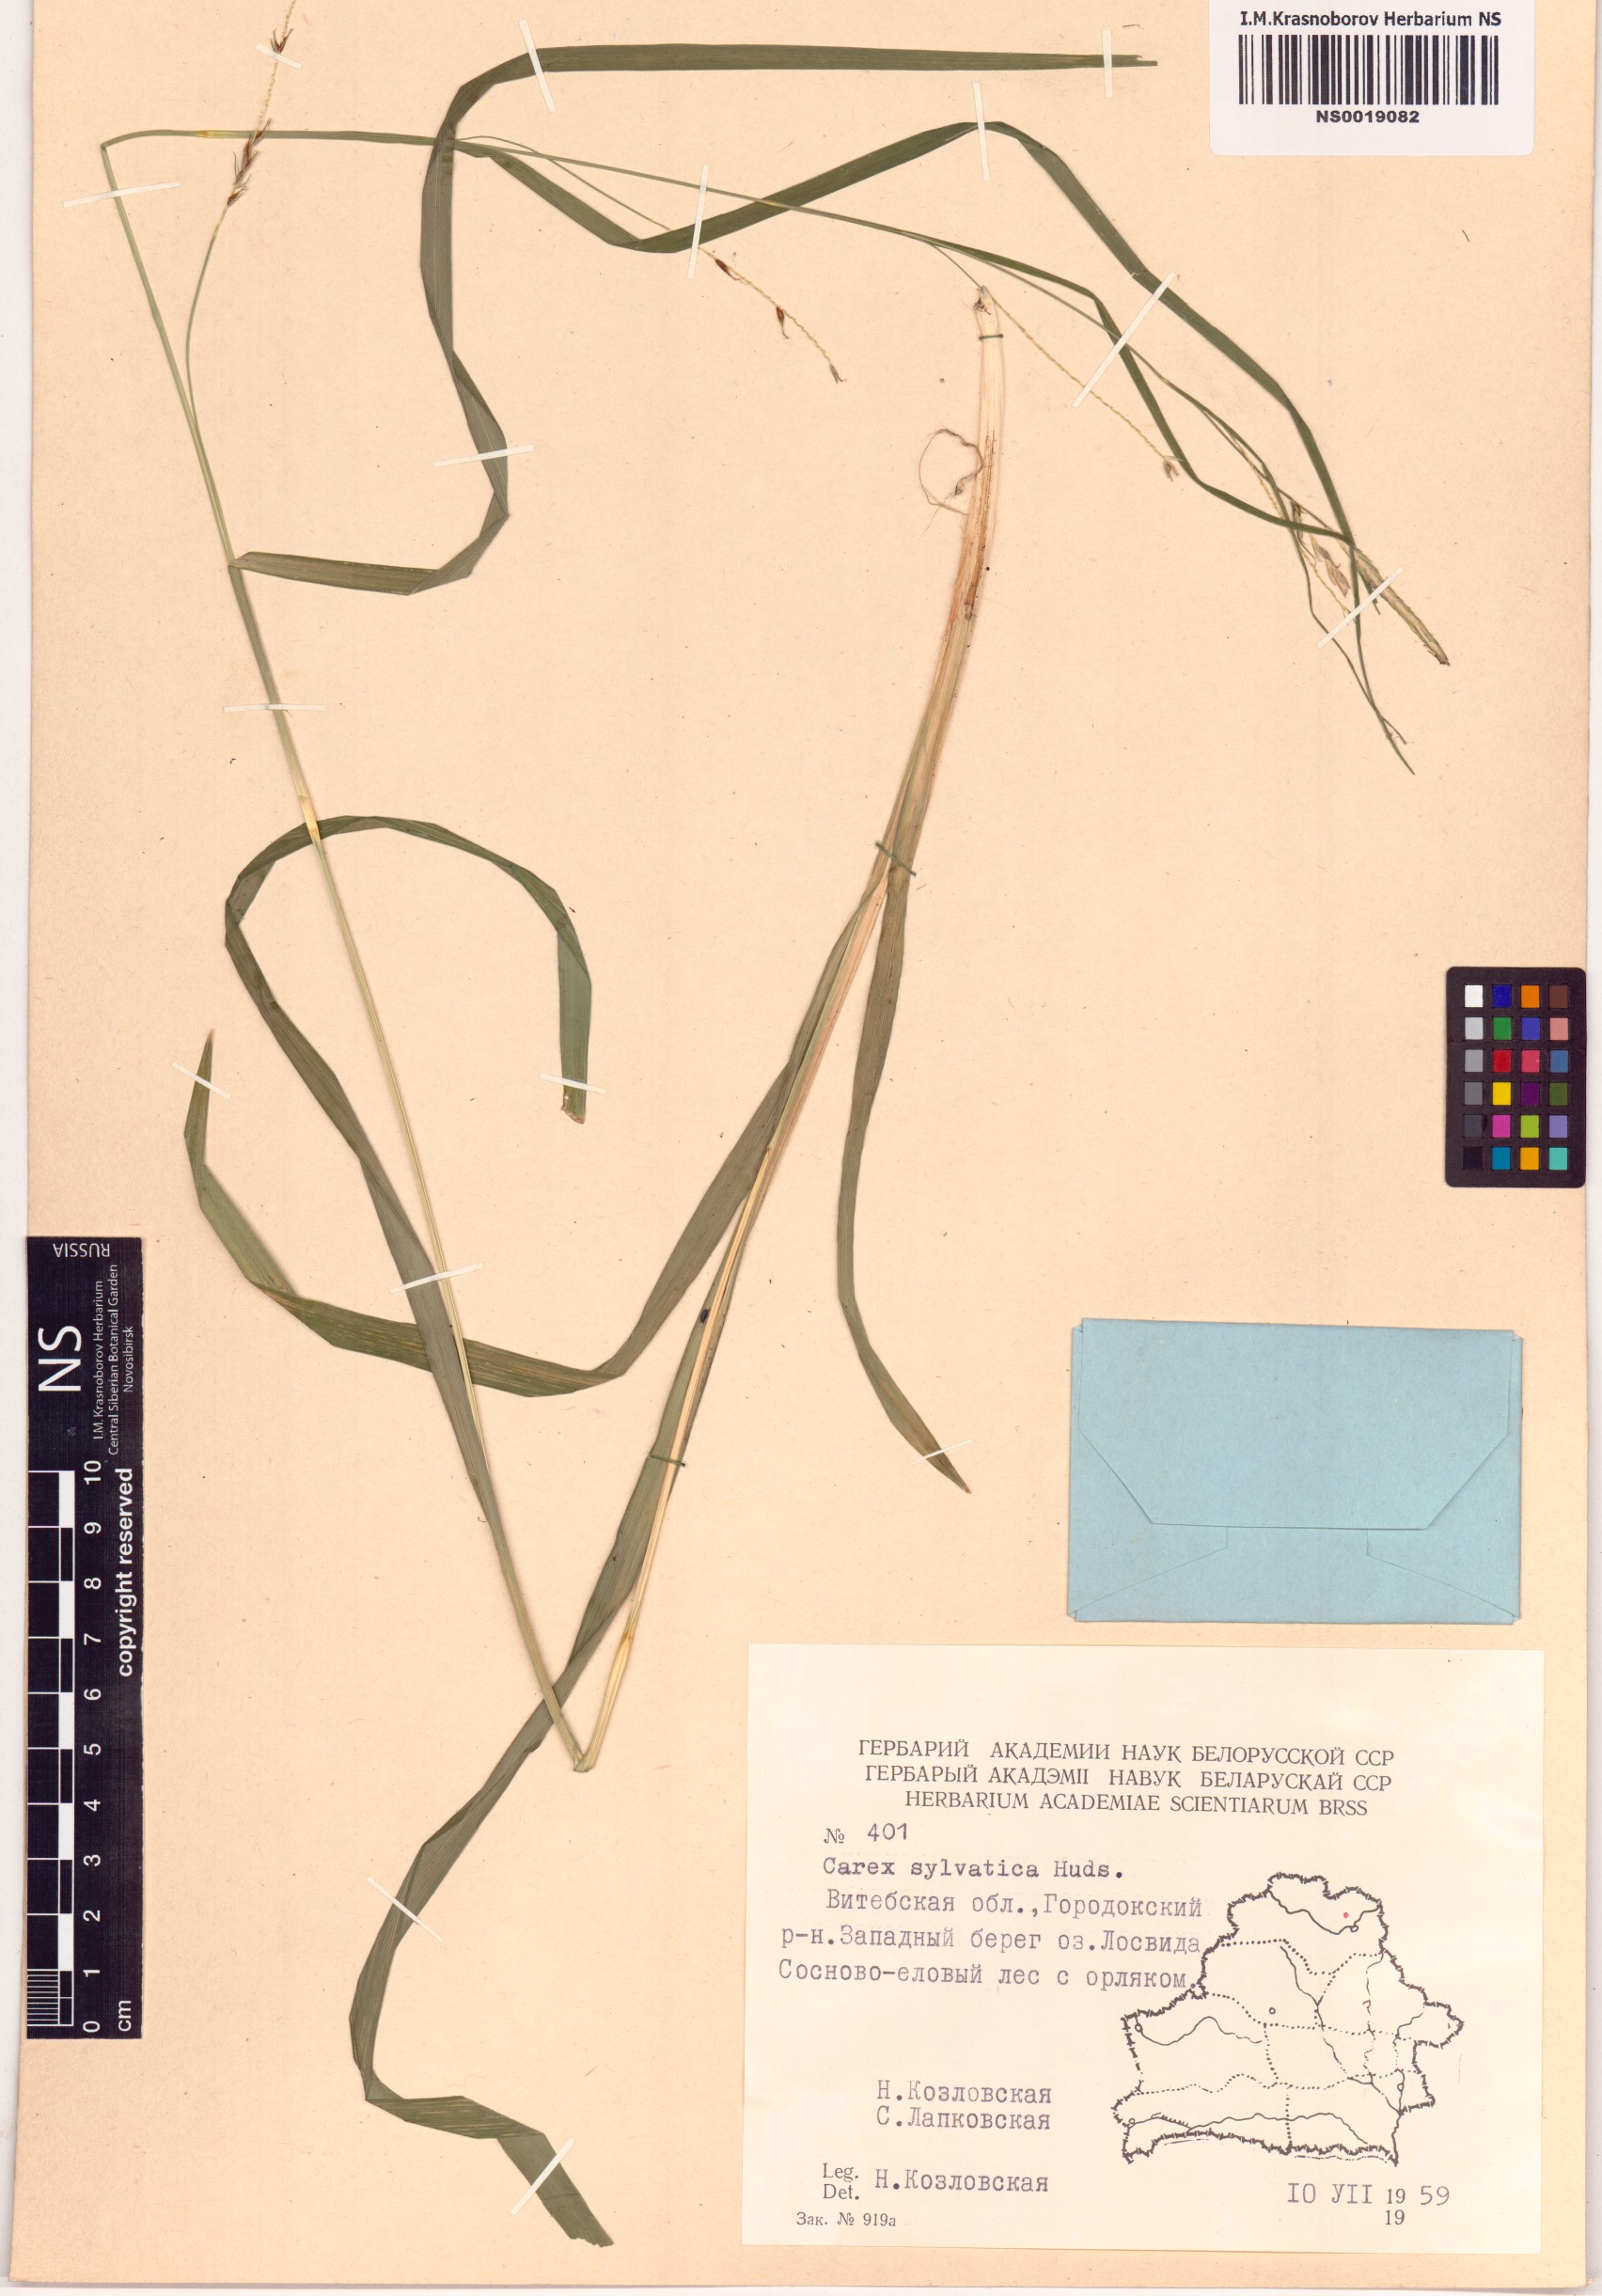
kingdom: Plantae
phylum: Tracheophyta
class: Liliopsida
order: Poales
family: Cyperaceae
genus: Carex
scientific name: Carex sylvatica
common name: Wood-sedge
